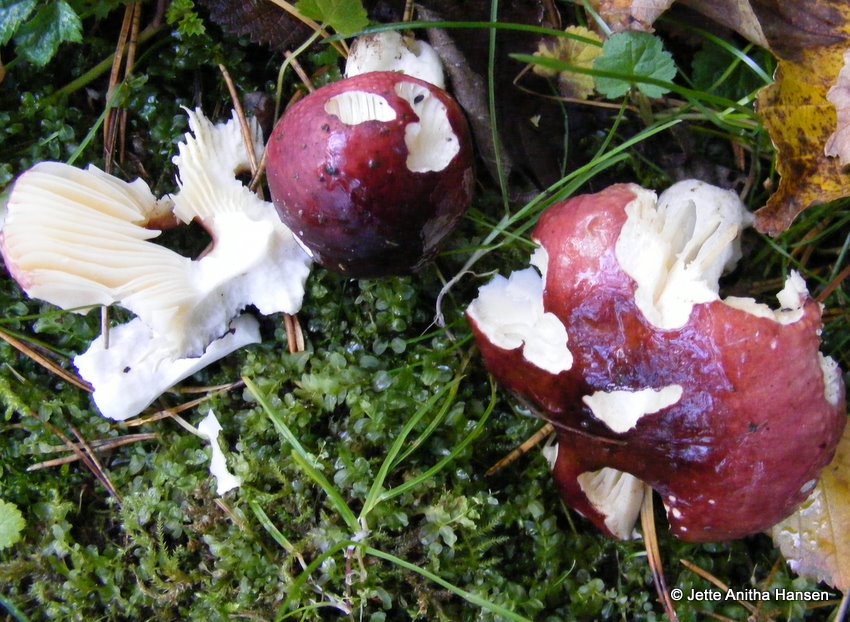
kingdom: Fungi
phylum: Basidiomycota
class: Agaricomycetes
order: Russulales
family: Russulaceae
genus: Russula
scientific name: Russula cessans
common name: fyrre-skørhat
